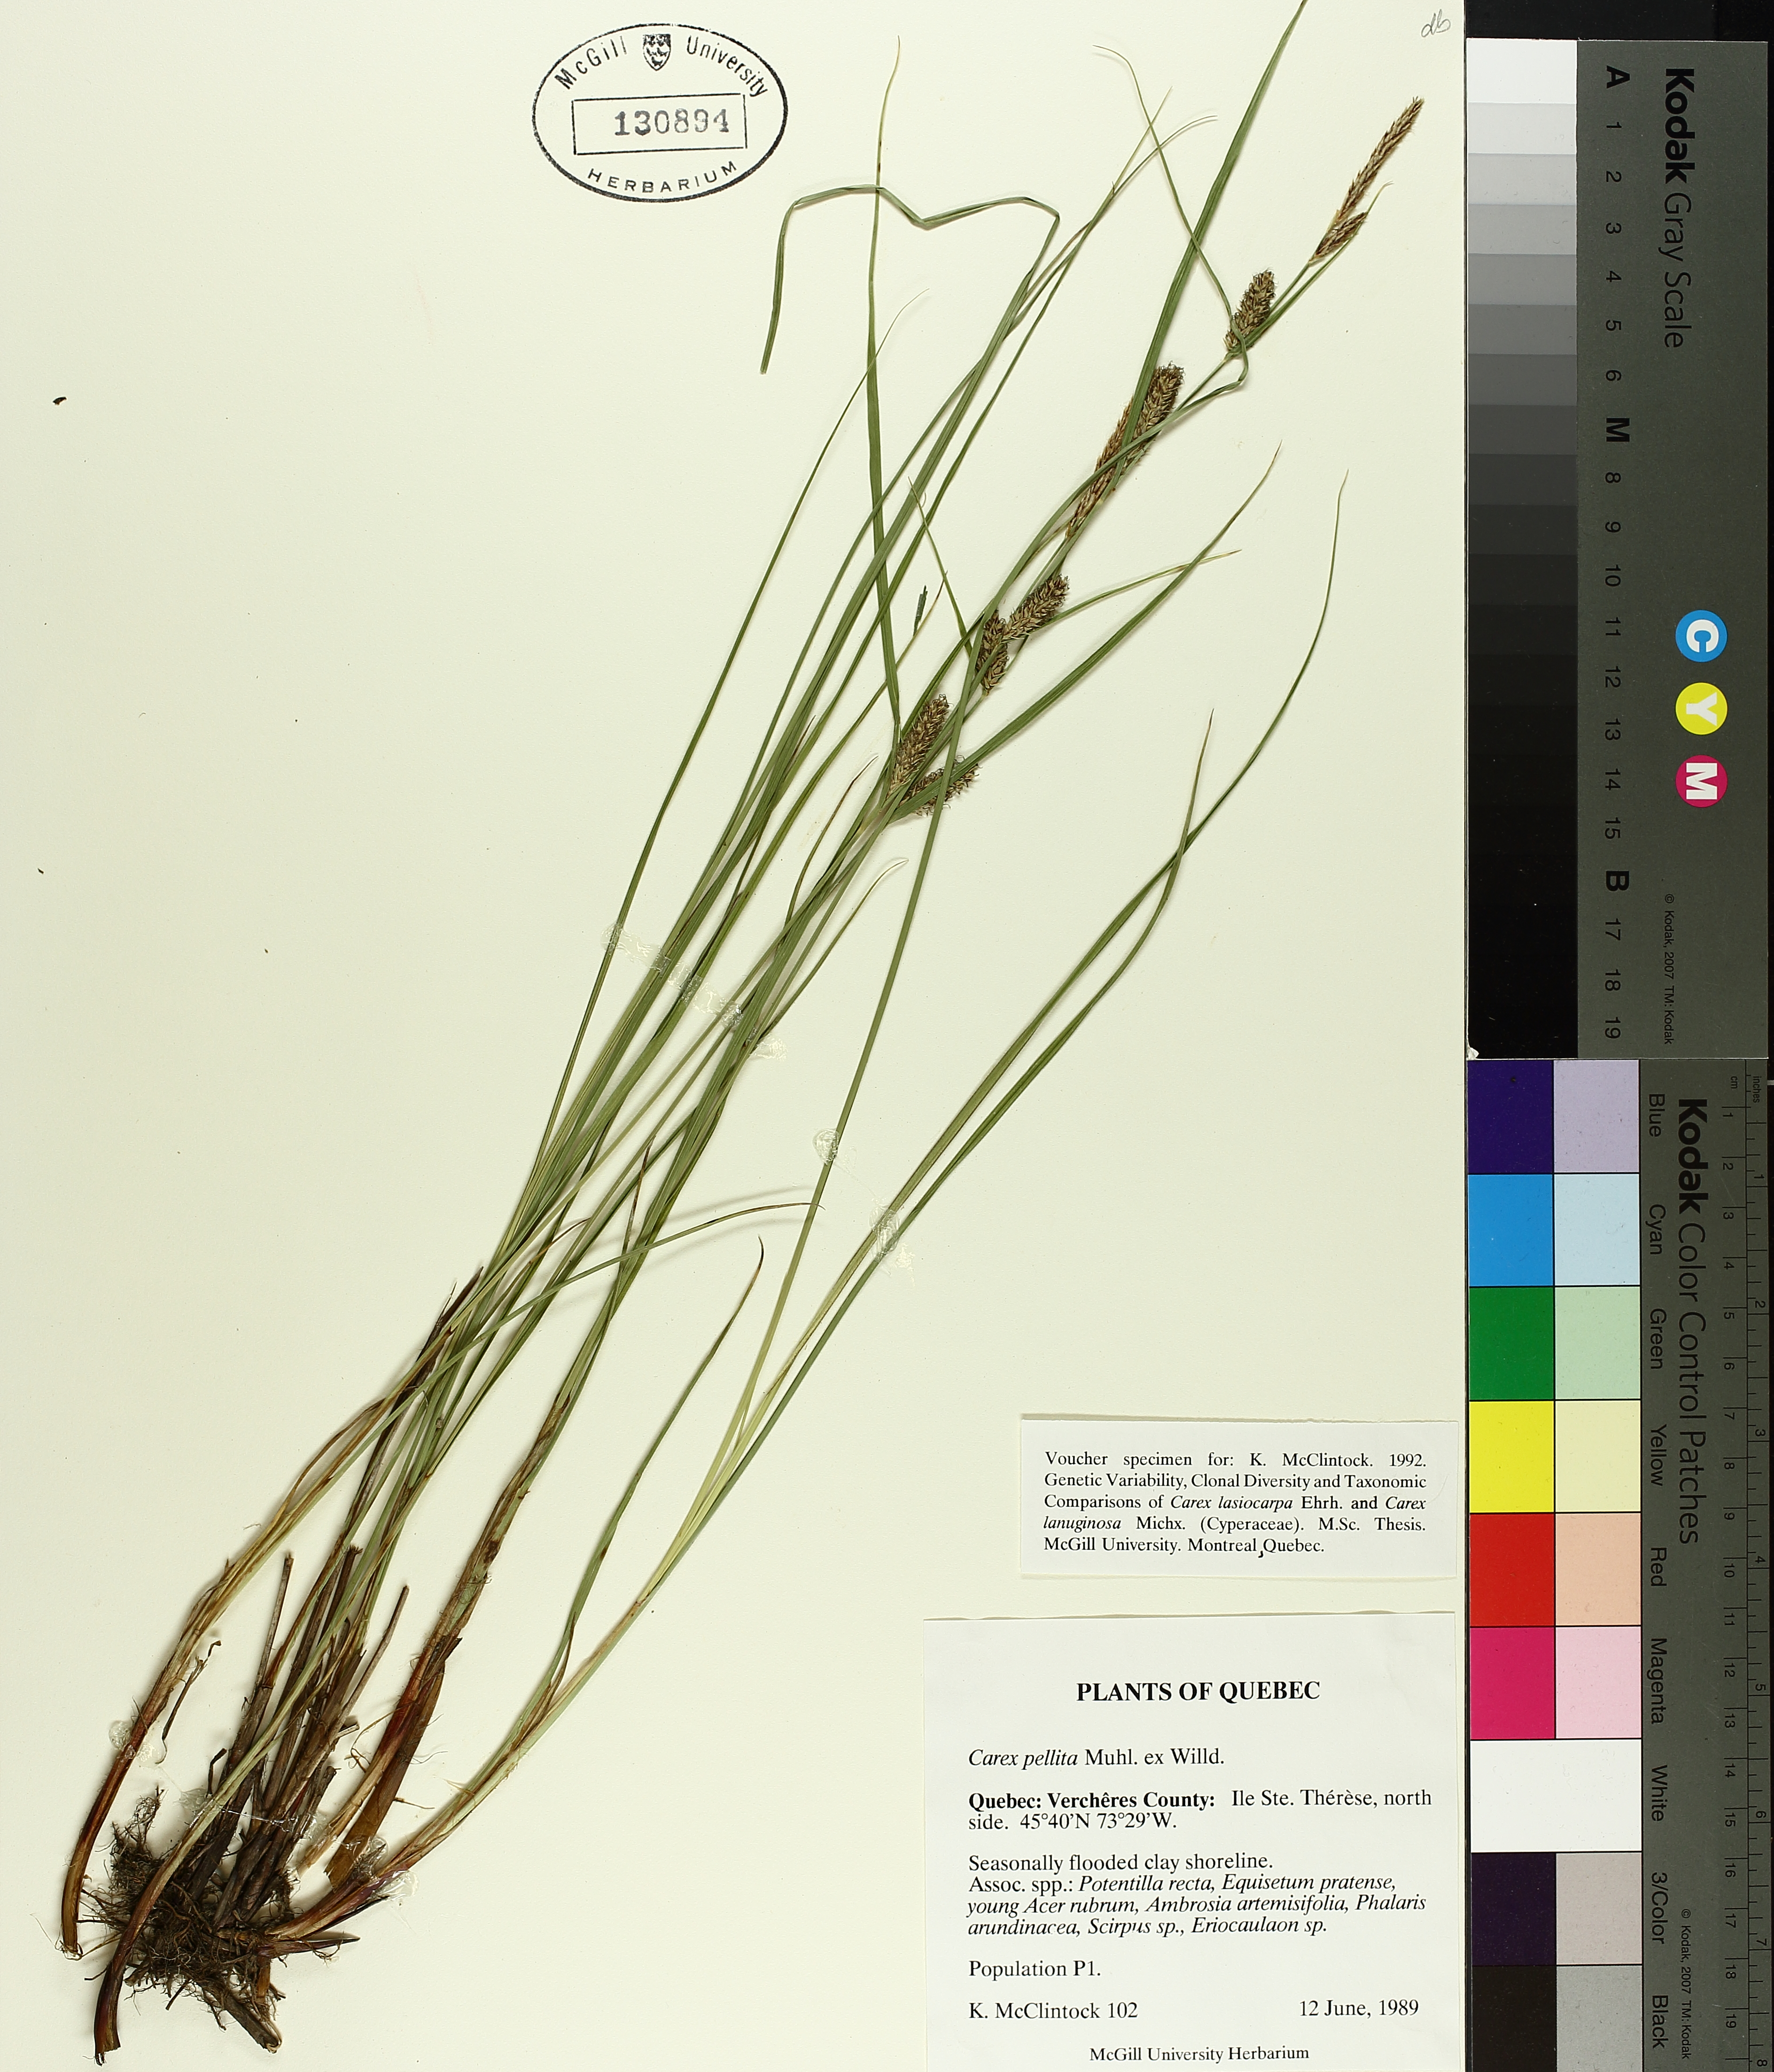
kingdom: Plantae
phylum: Tracheophyta
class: Liliopsida
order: Poales
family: Cyperaceae
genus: Carex
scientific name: Carex pellita
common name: Woolly sedge
